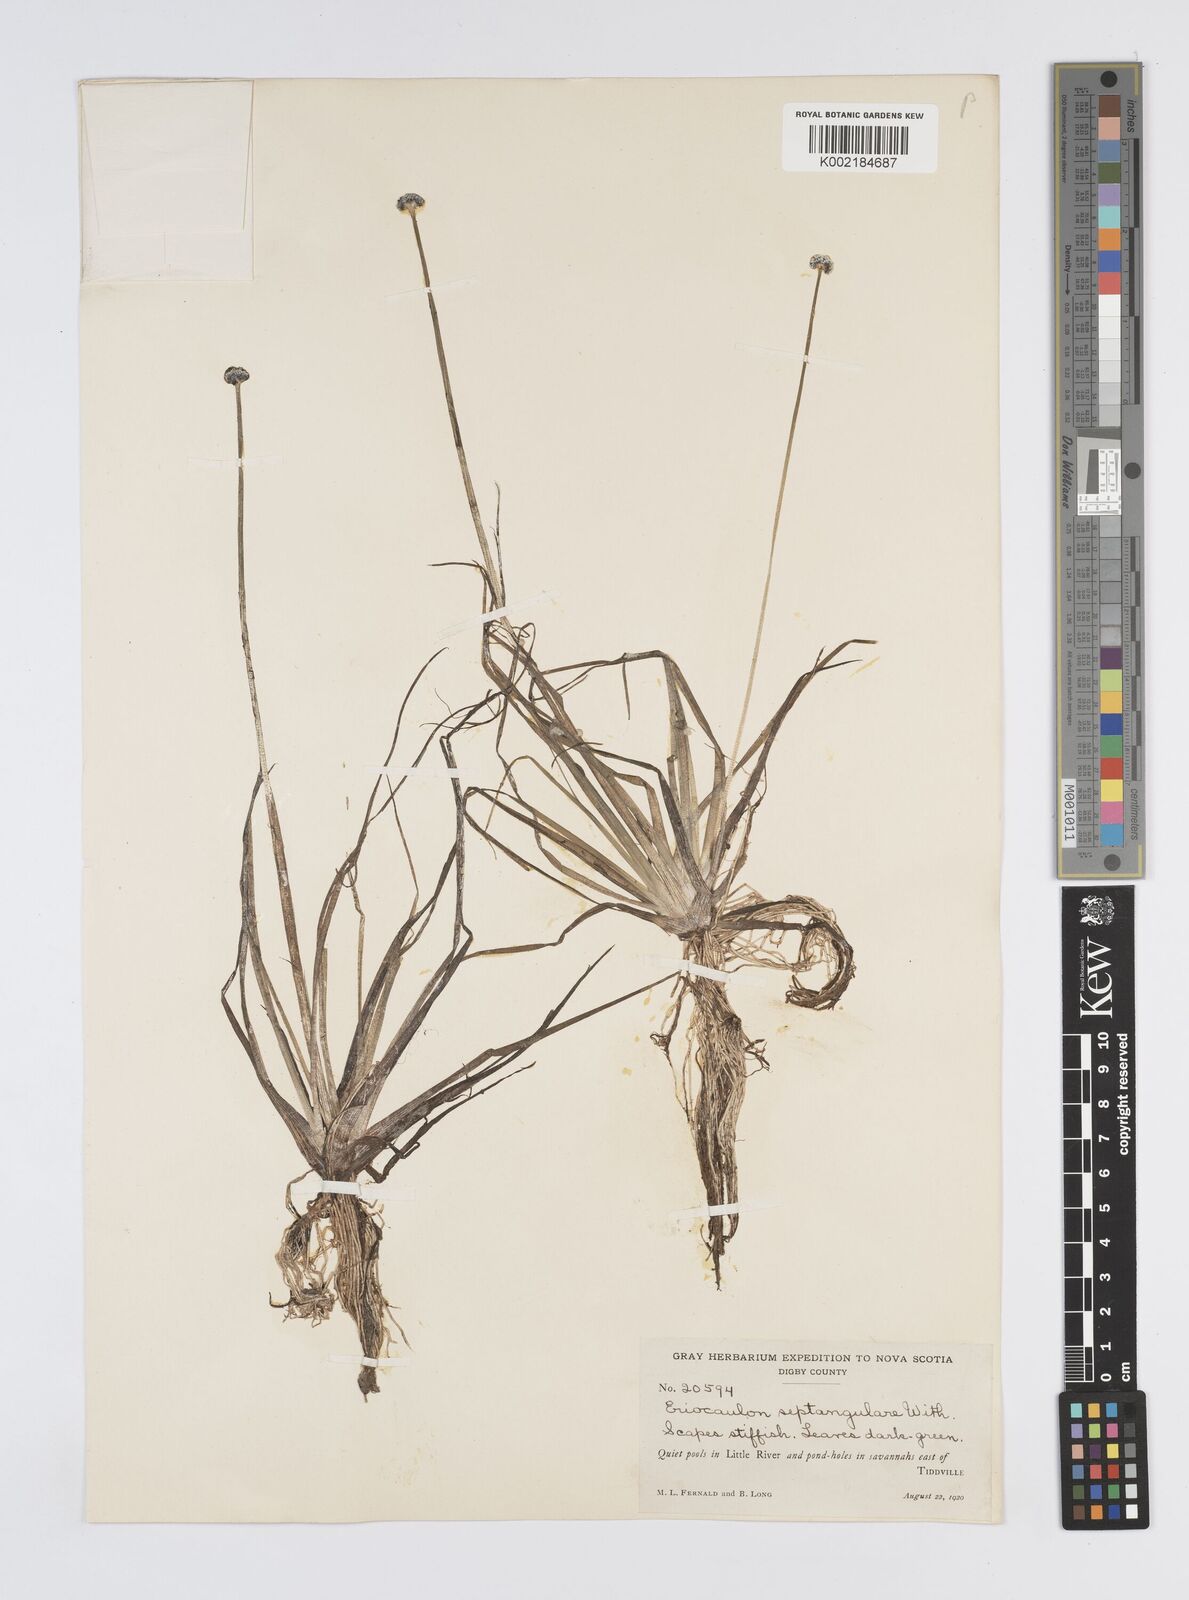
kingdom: Plantae
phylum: Tracheophyta
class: Liliopsida
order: Poales
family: Eriocaulaceae
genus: Eriocaulon
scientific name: Eriocaulon aquaticum
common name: Pipewort
